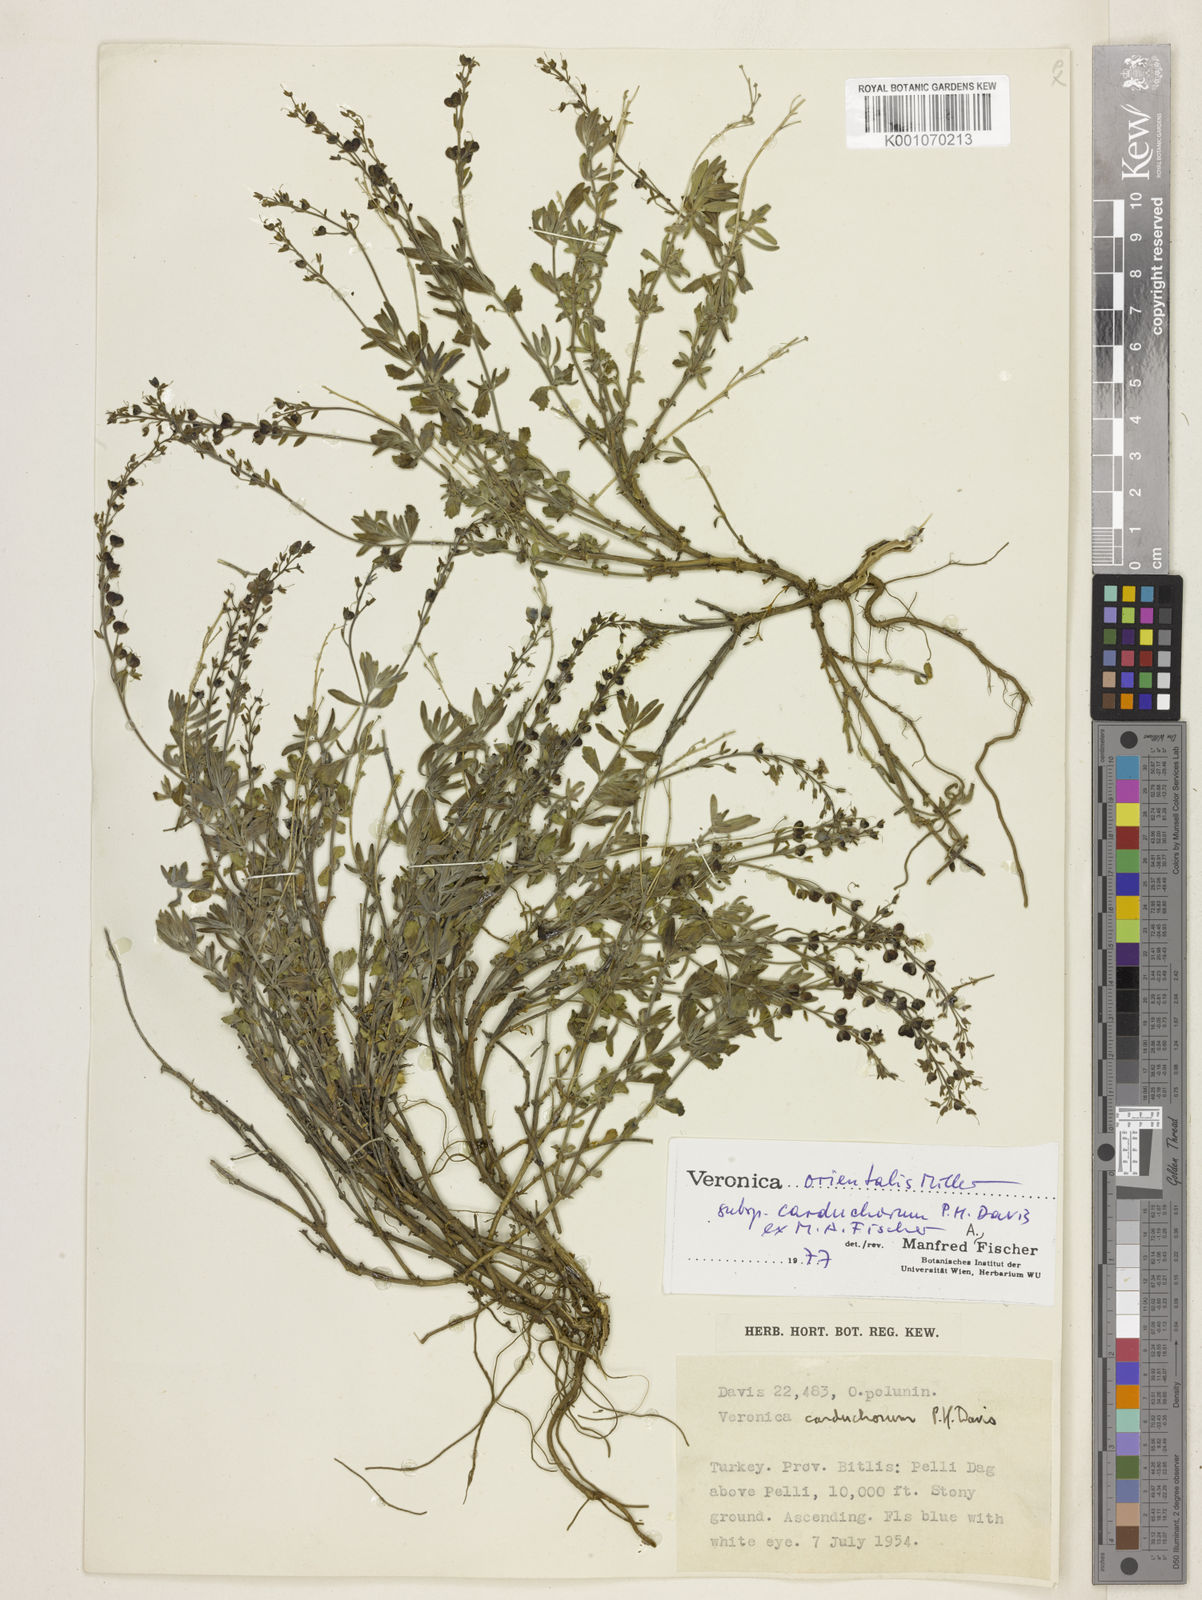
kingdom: Plantae
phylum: Tracheophyta
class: Magnoliopsida
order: Lamiales
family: Plantaginaceae
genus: Veronica
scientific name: Veronica orientalis
